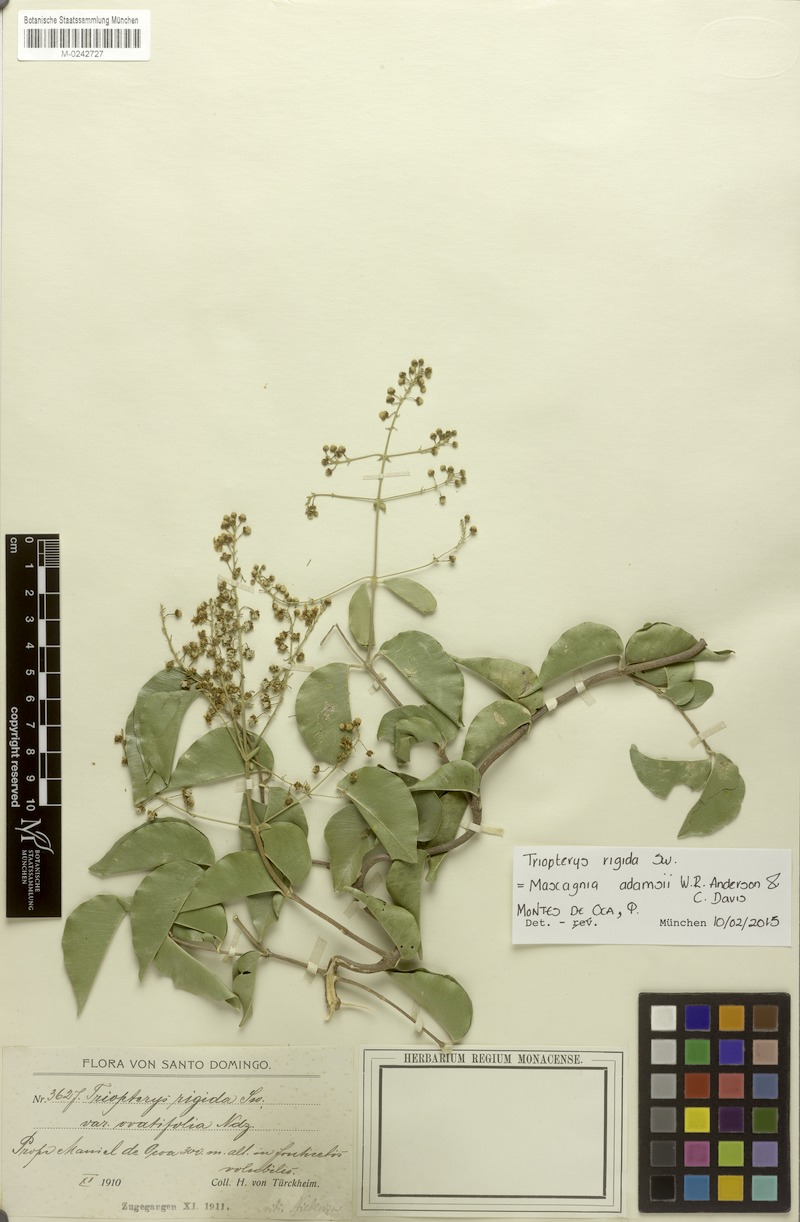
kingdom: Plantae
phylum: Tracheophyta
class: Magnoliopsida
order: Malpighiales
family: Malpighiaceae
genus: Mascagnia
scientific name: Mascagnia adamsii
